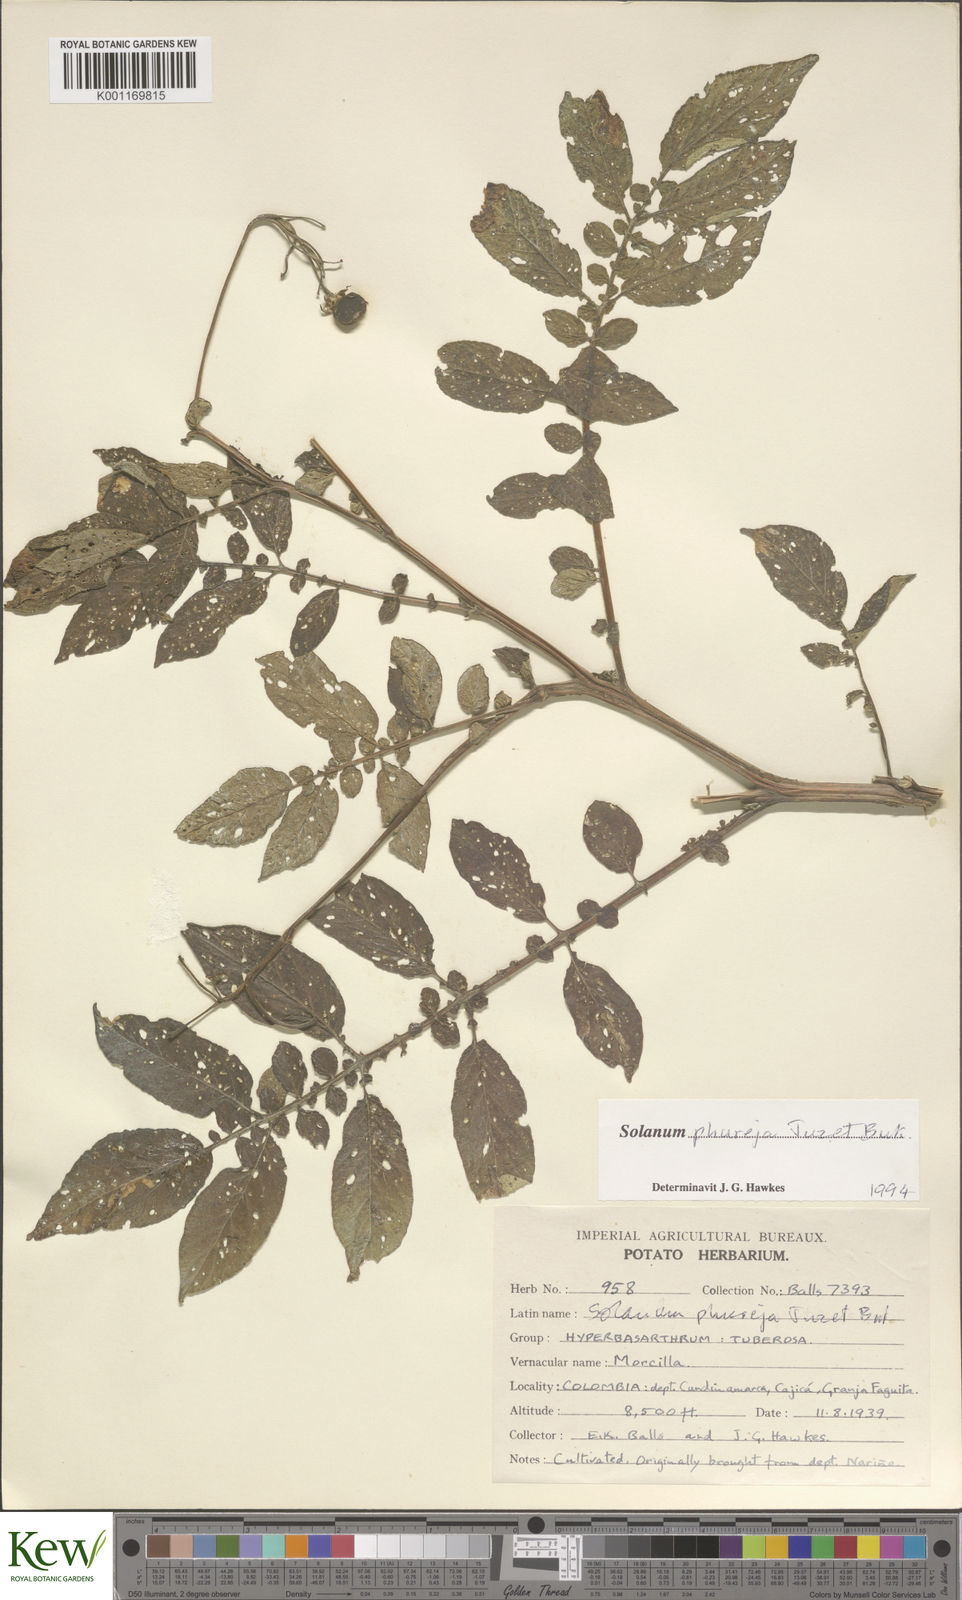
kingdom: Plantae
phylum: Tracheophyta
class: Magnoliopsida
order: Solanales
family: Solanaceae
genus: Solanum
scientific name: Solanum tuberosum
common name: Potato
